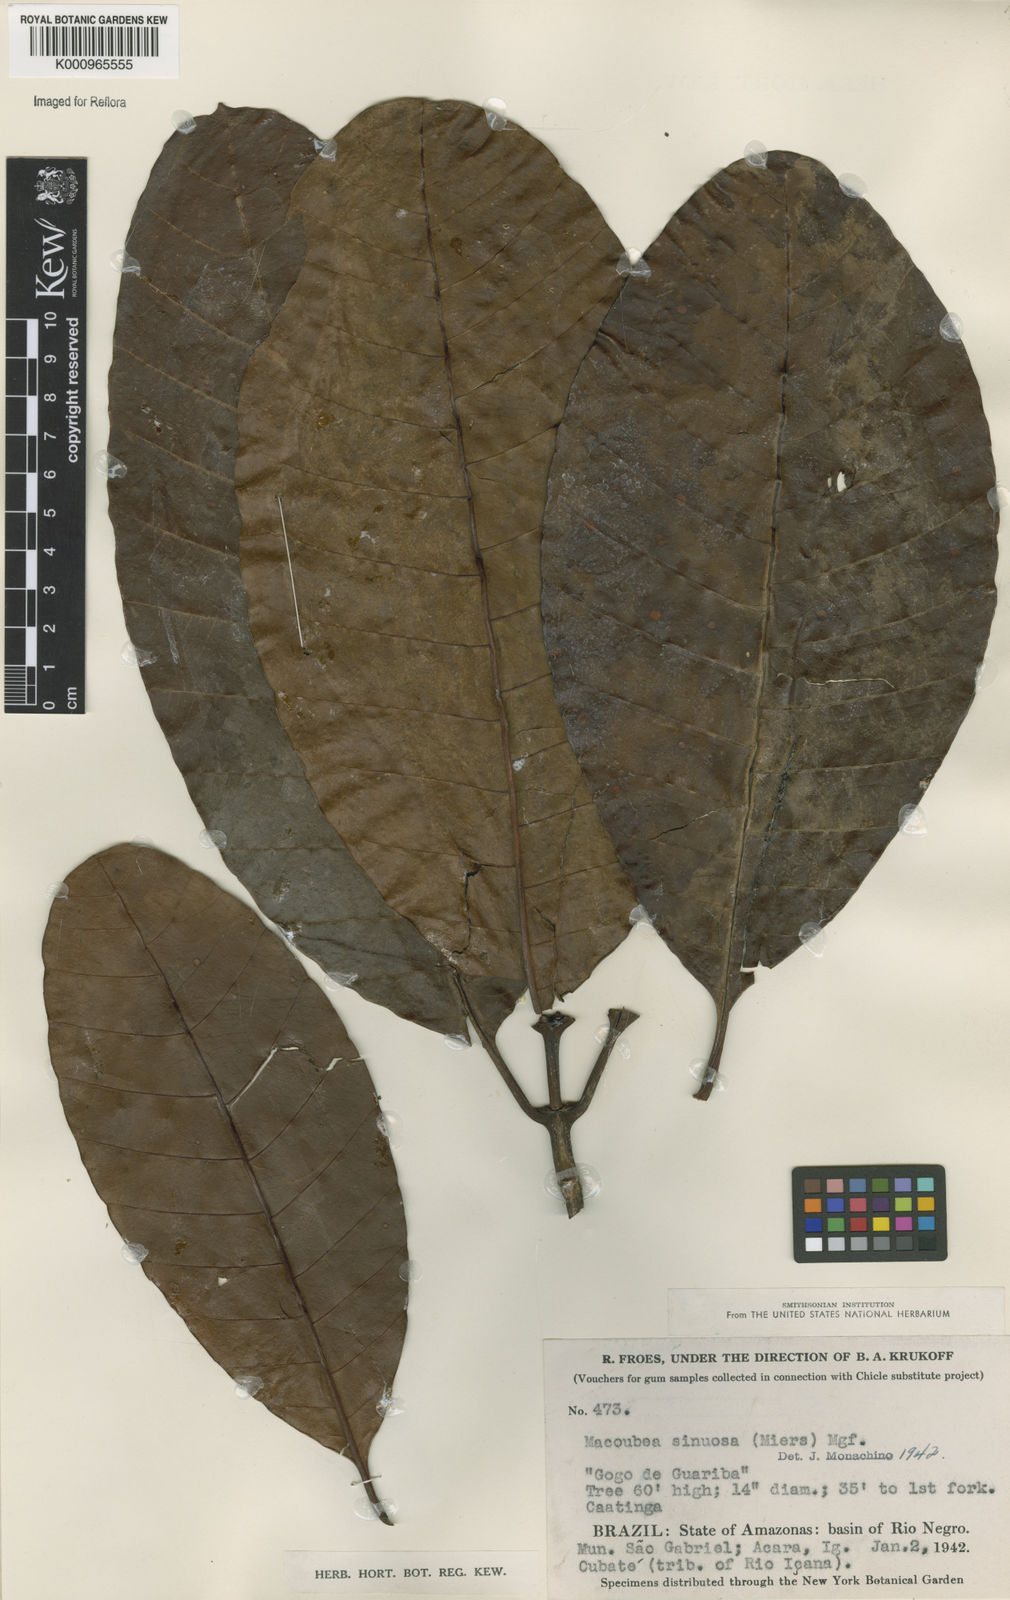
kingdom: Plantae
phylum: Tracheophyta
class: Magnoliopsida
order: Gentianales
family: Apocynaceae
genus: Macoubea
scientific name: Macoubea
